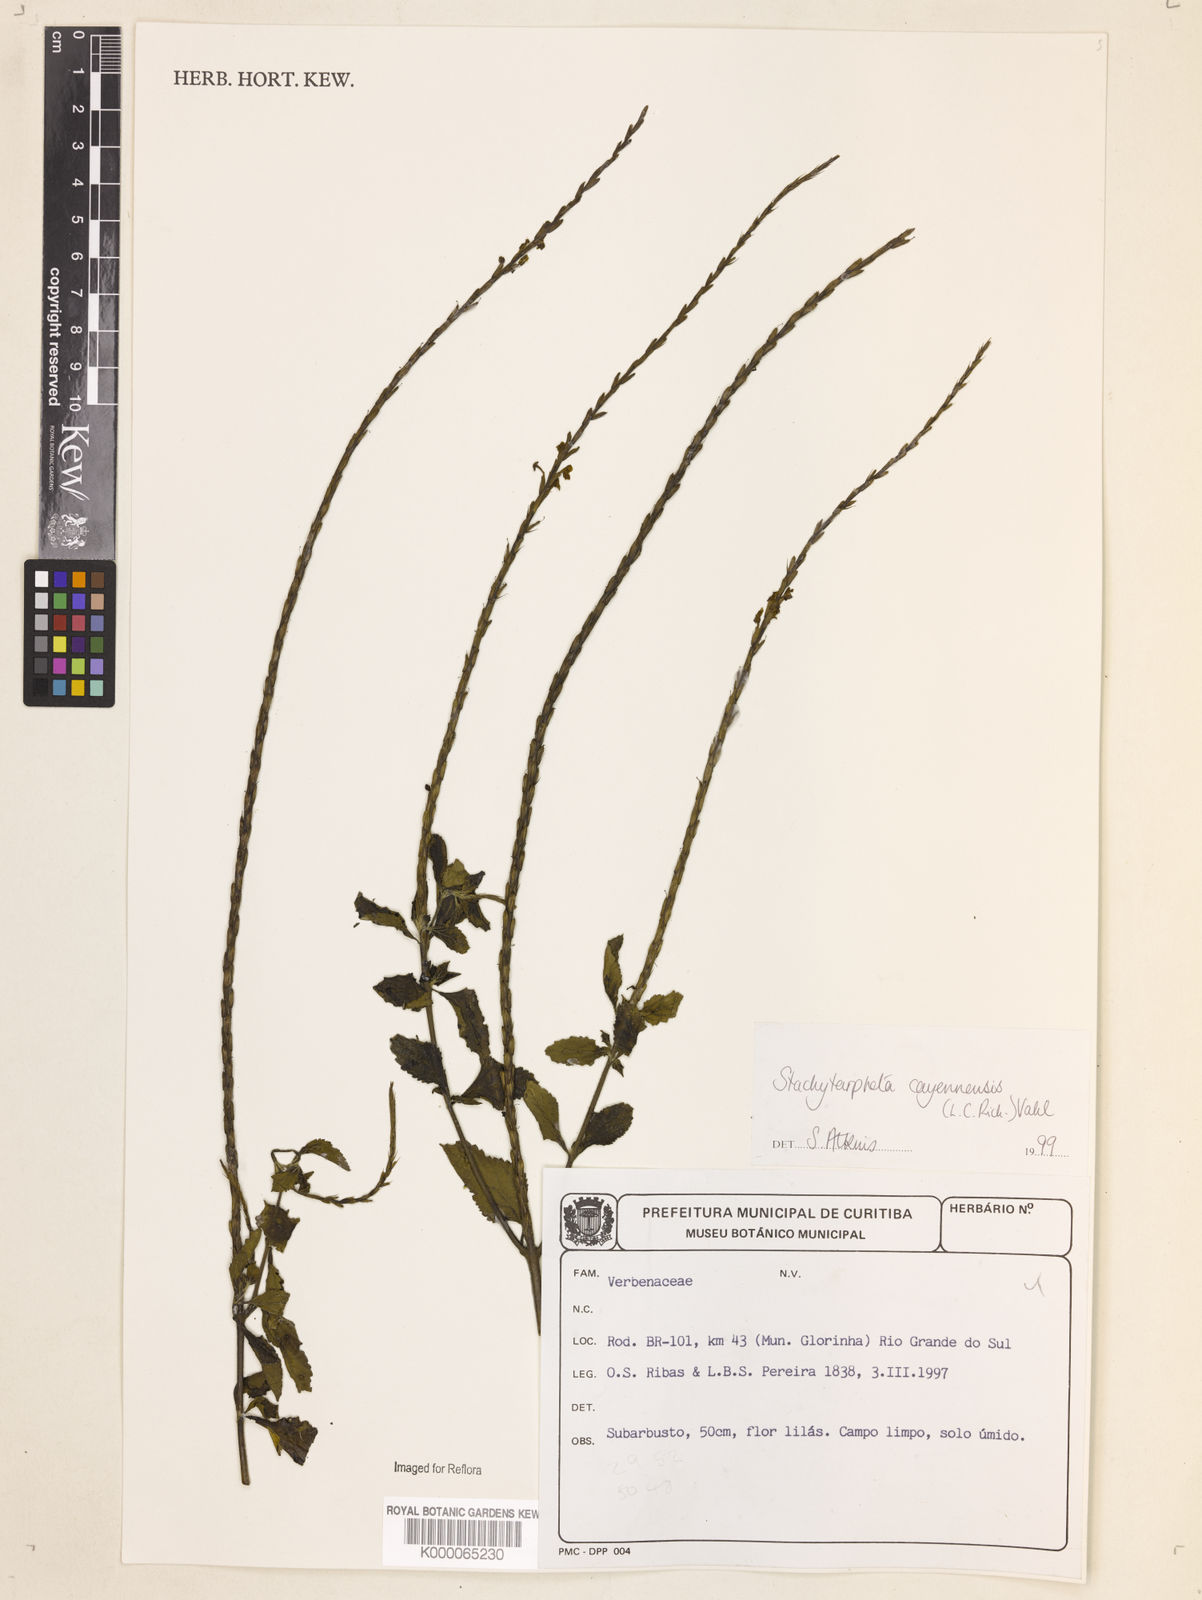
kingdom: Plantae
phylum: Tracheophyta
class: Magnoliopsida
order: Lamiales
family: Verbenaceae
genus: Stachytarpheta
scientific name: Stachytarpheta cayennensis
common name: Cayenne porterweed
